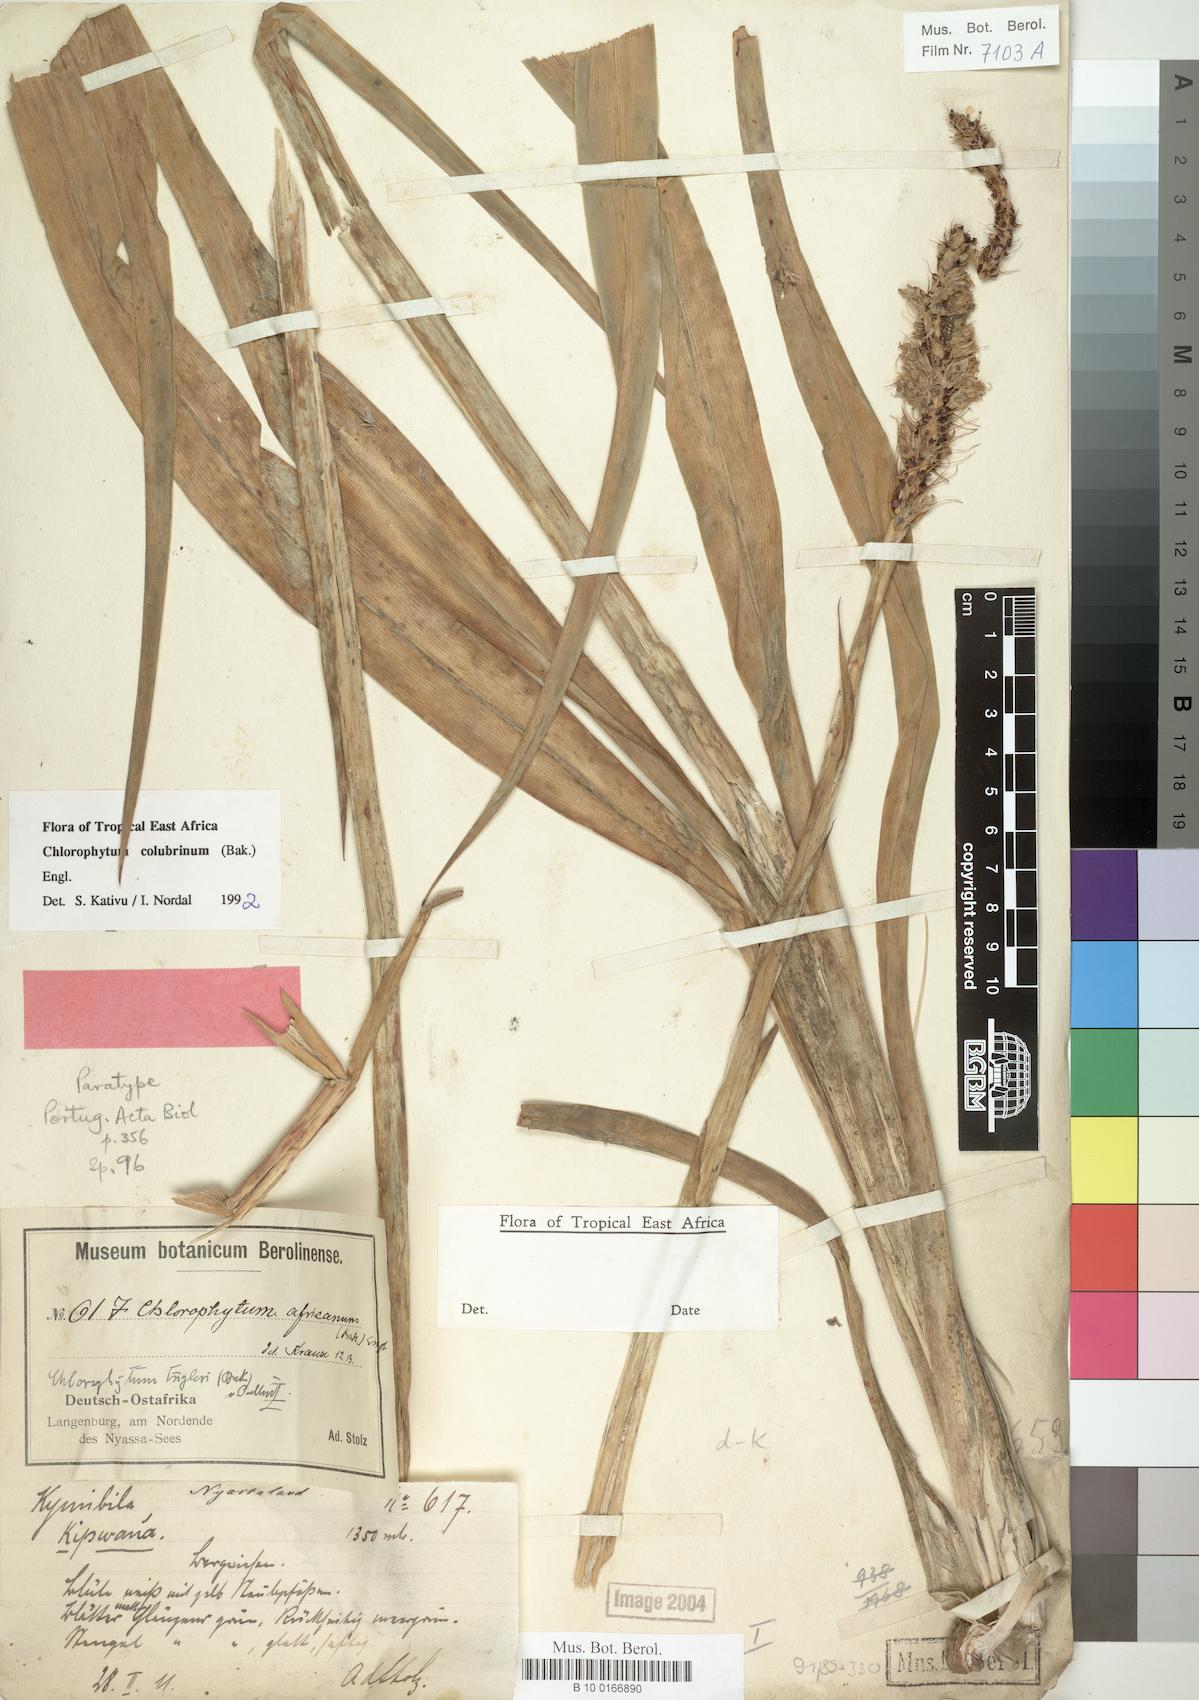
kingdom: Plantae
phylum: Tracheophyta
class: Liliopsida
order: Asparagales
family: Asparagaceae
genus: Chlorophytum
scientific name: Chlorophytum colubrinum
